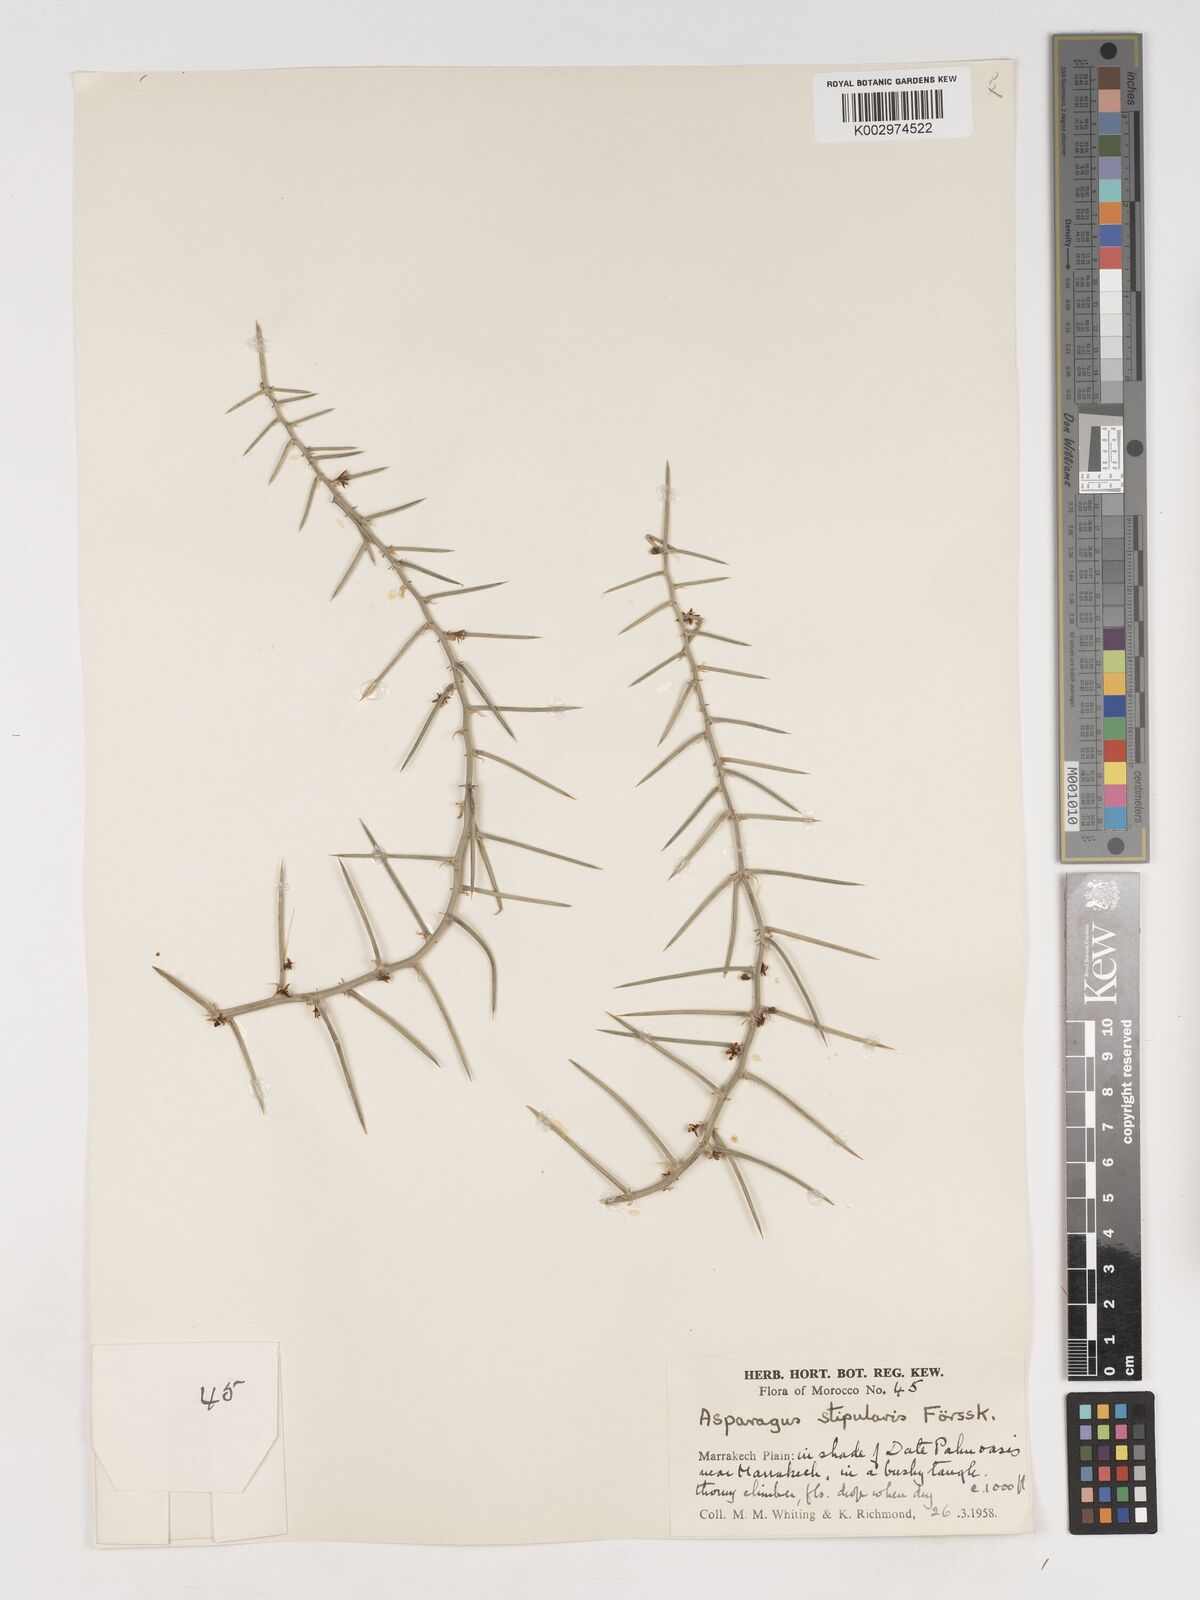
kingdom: Plantae
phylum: Tracheophyta
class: Liliopsida
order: Asparagales
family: Asparagaceae
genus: Asparagus
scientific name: Asparagus horridus
